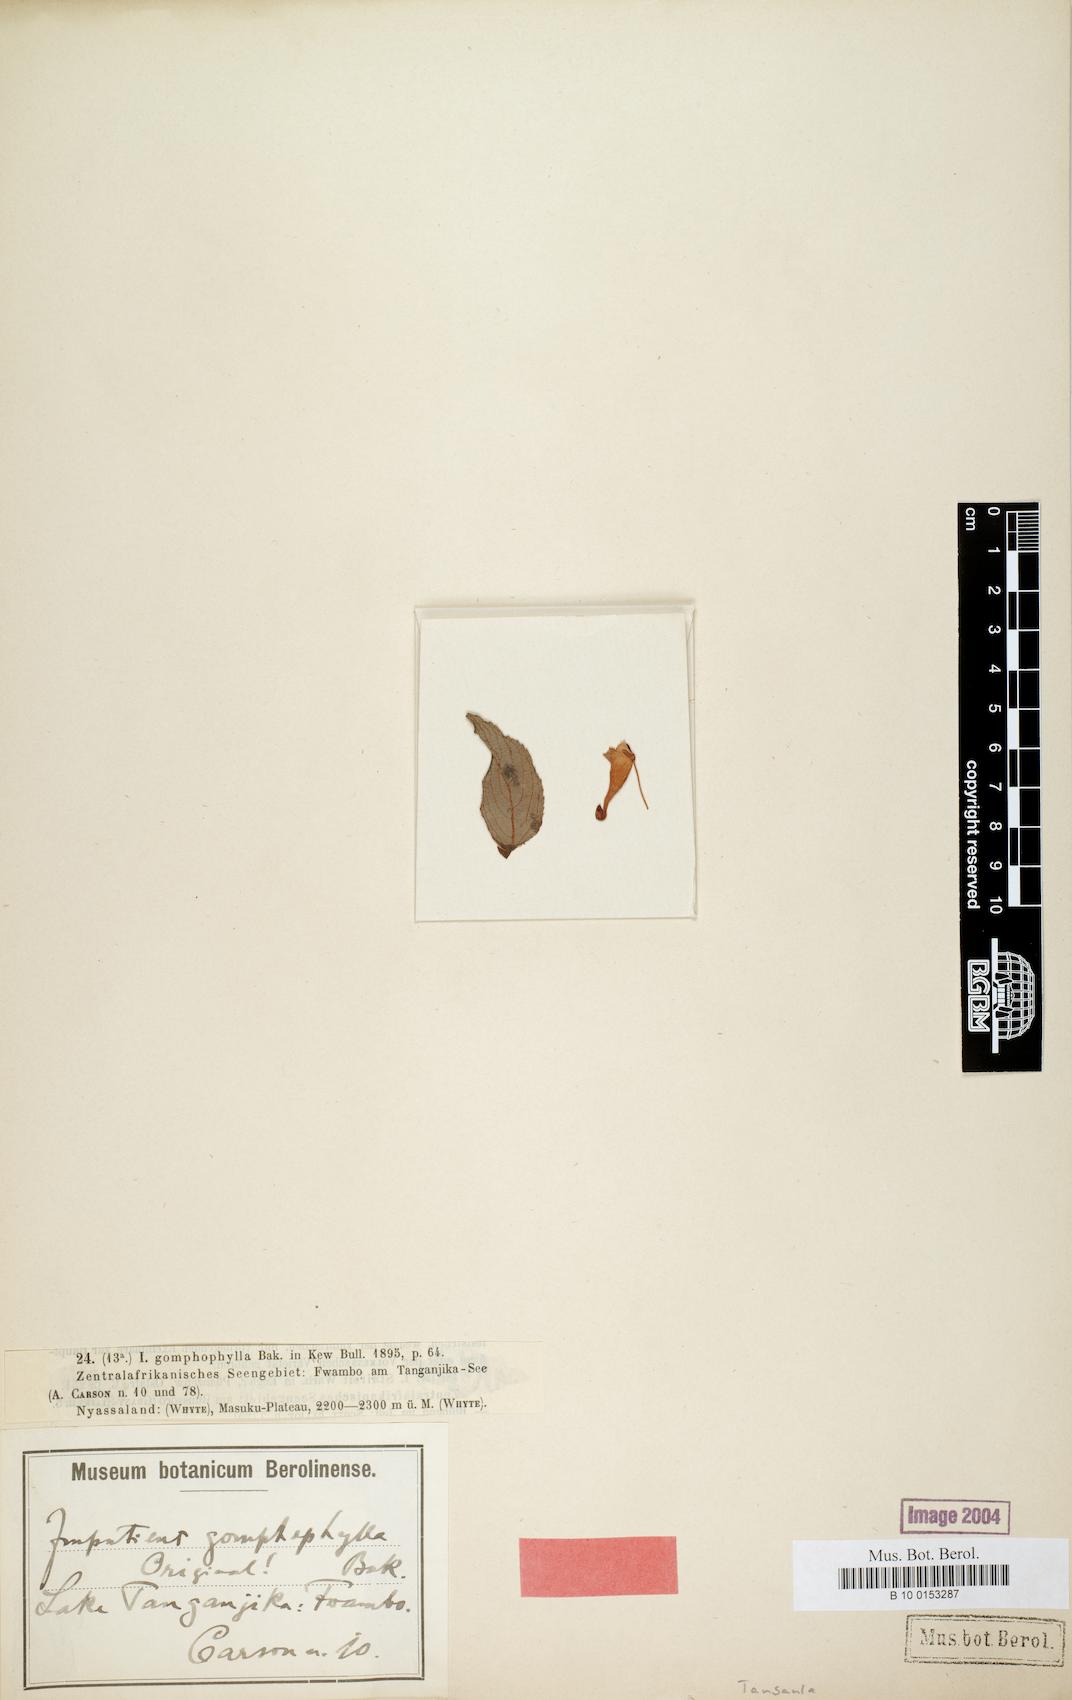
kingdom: Plantae
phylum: Tracheophyta
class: Magnoliopsida
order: Ericales
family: Balsaminaceae
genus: Impatiens
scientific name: Impatiens gomphophylla
